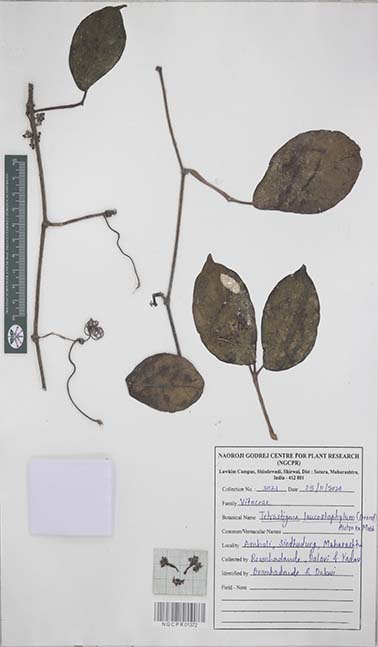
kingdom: Plantae
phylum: Tracheophyta
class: Magnoliopsida
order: Vitales
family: Vitaceae
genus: Tetrastigma
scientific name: Tetrastigma leucostaphylum
